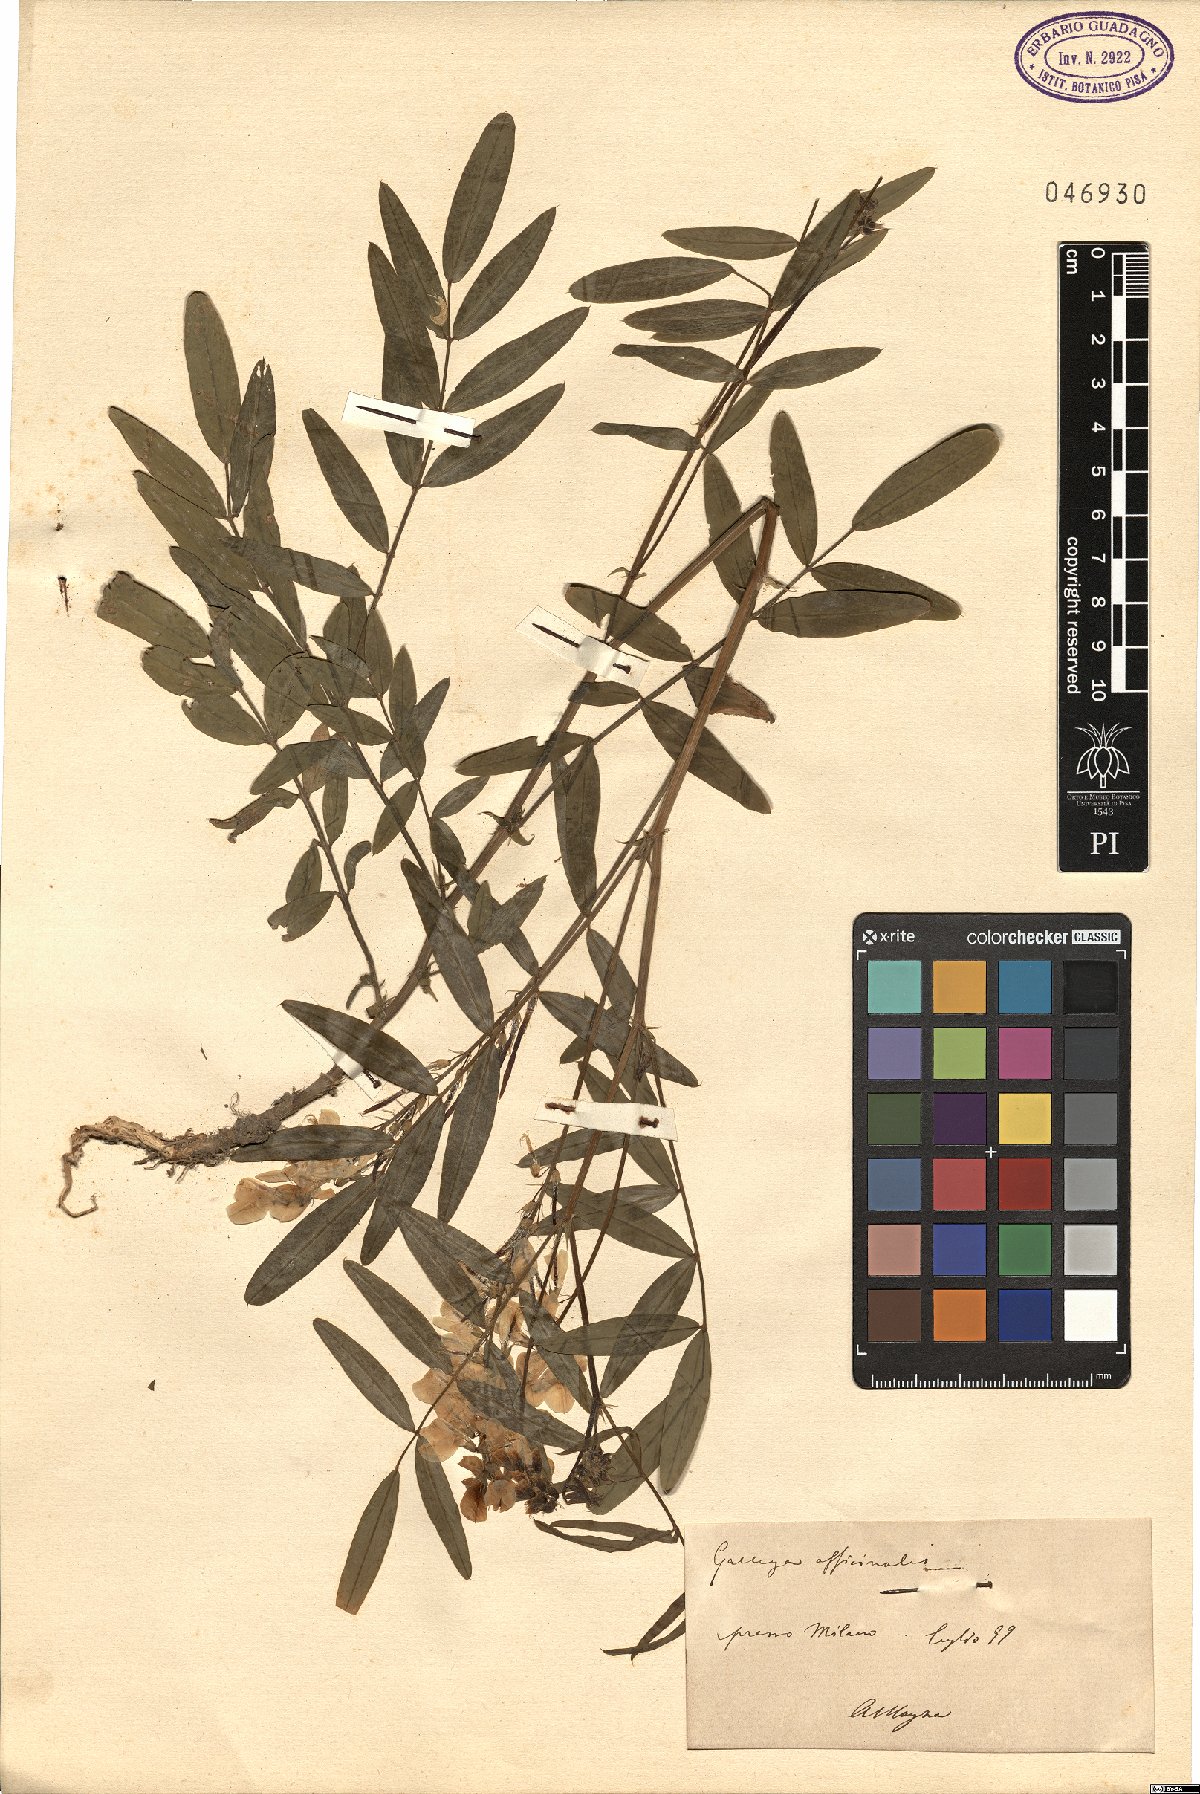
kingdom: Plantae
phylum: Tracheophyta
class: Magnoliopsida
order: Fabales
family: Fabaceae
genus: Galega
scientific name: Galega officinalis
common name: Goat's-rue
